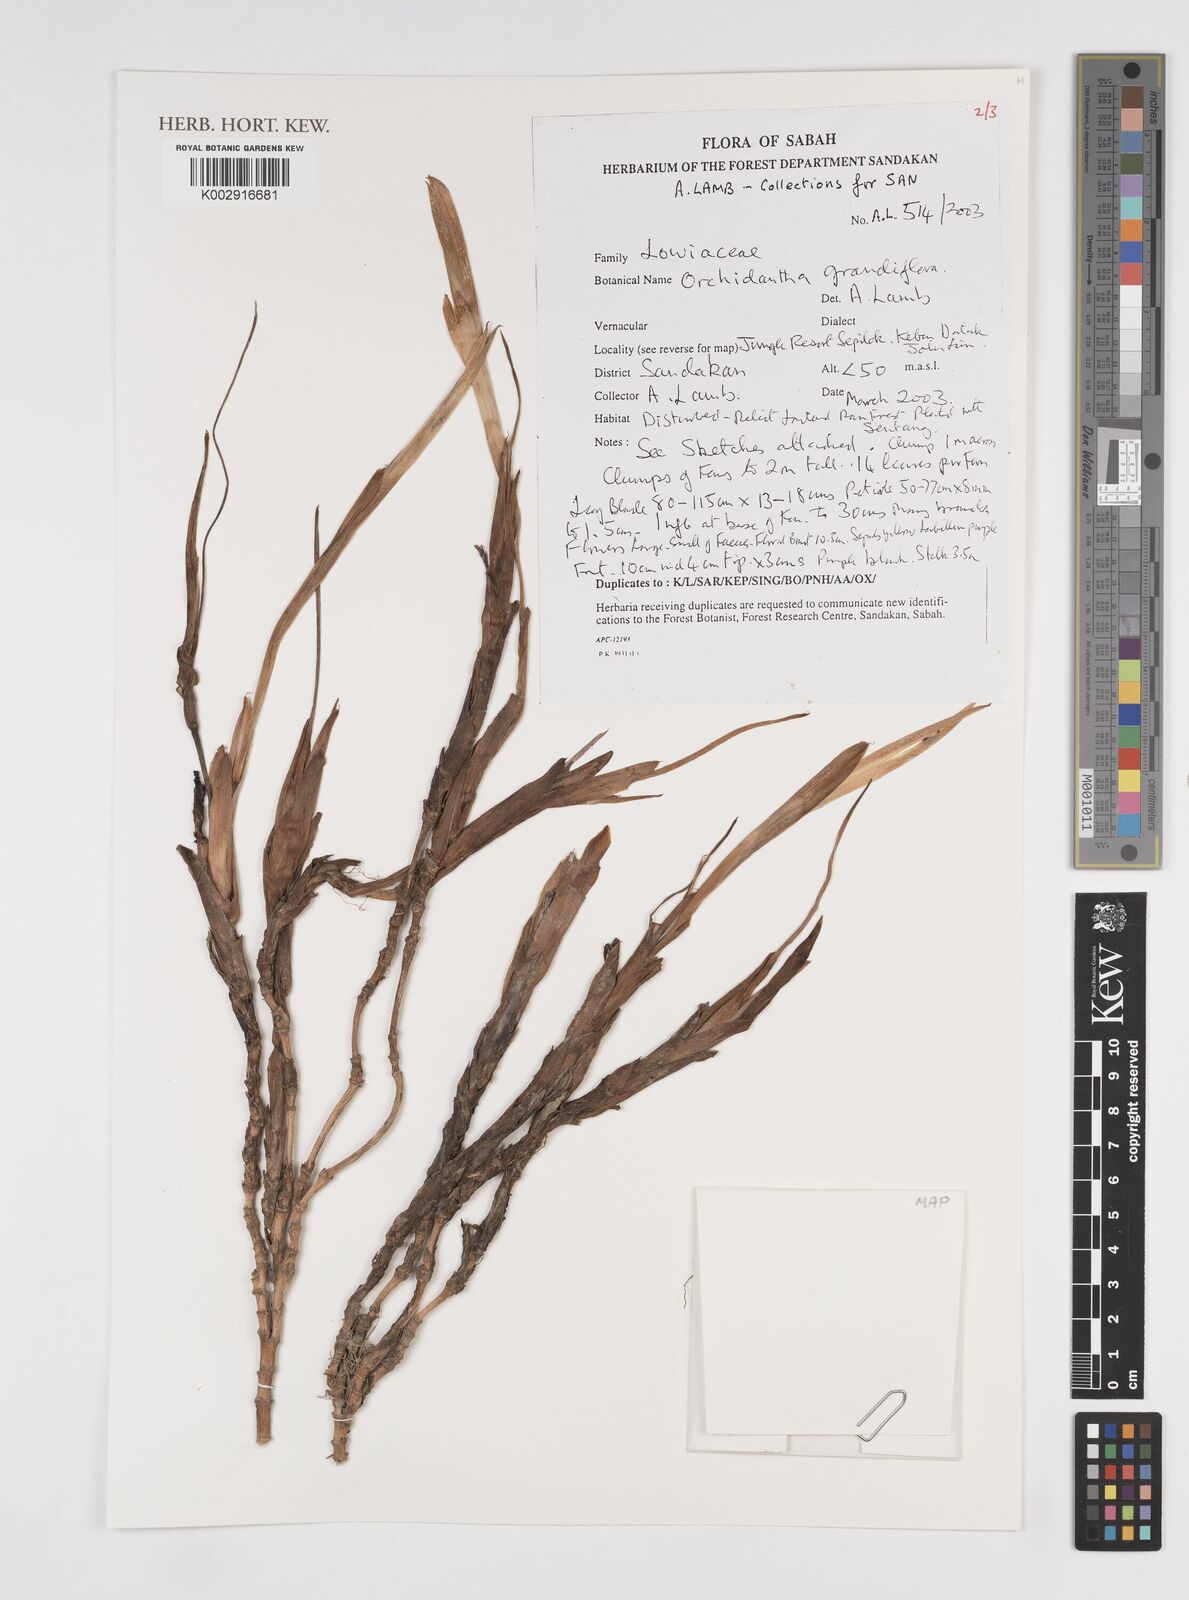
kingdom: Plantae
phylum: Tracheophyta
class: Liliopsida
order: Zingiberales
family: Lowiaceae
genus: Orchidantha
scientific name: Orchidantha grandiflora
